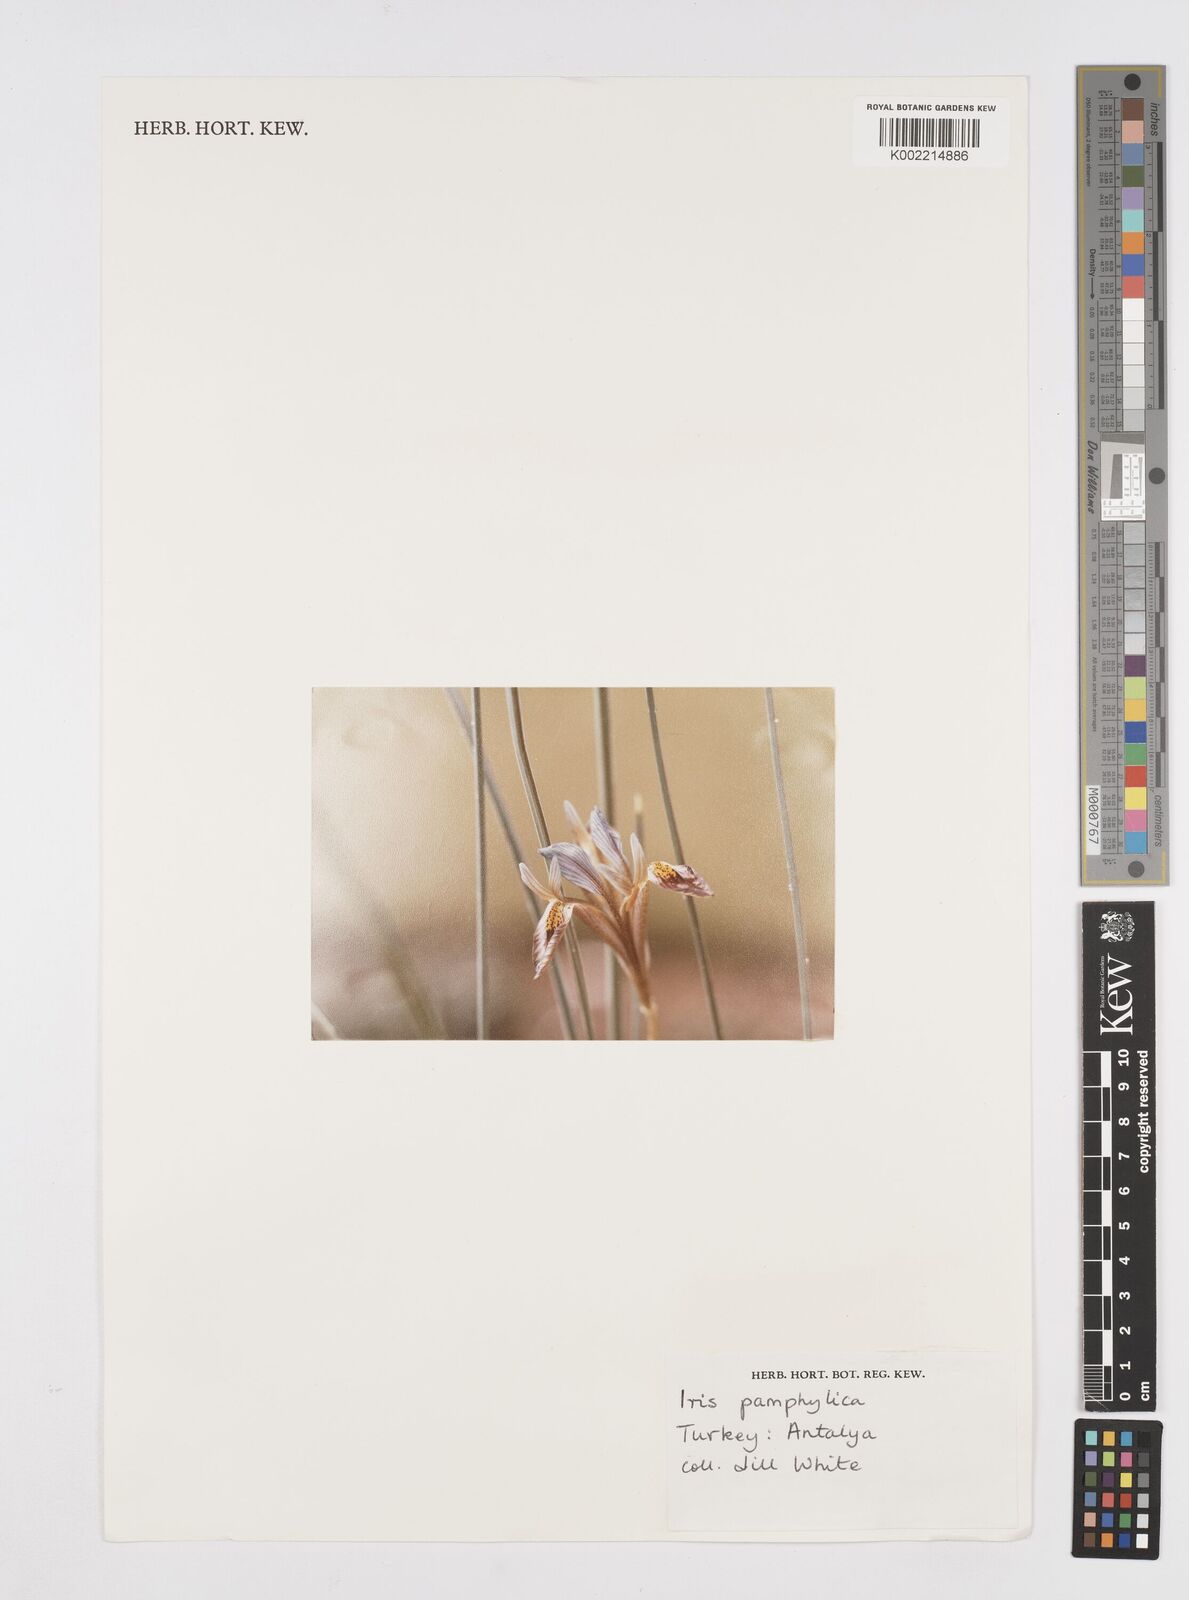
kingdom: Plantae
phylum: Tracheophyta
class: Liliopsida
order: Asparagales
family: Iridaceae
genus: Iris
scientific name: Iris pamphylica
